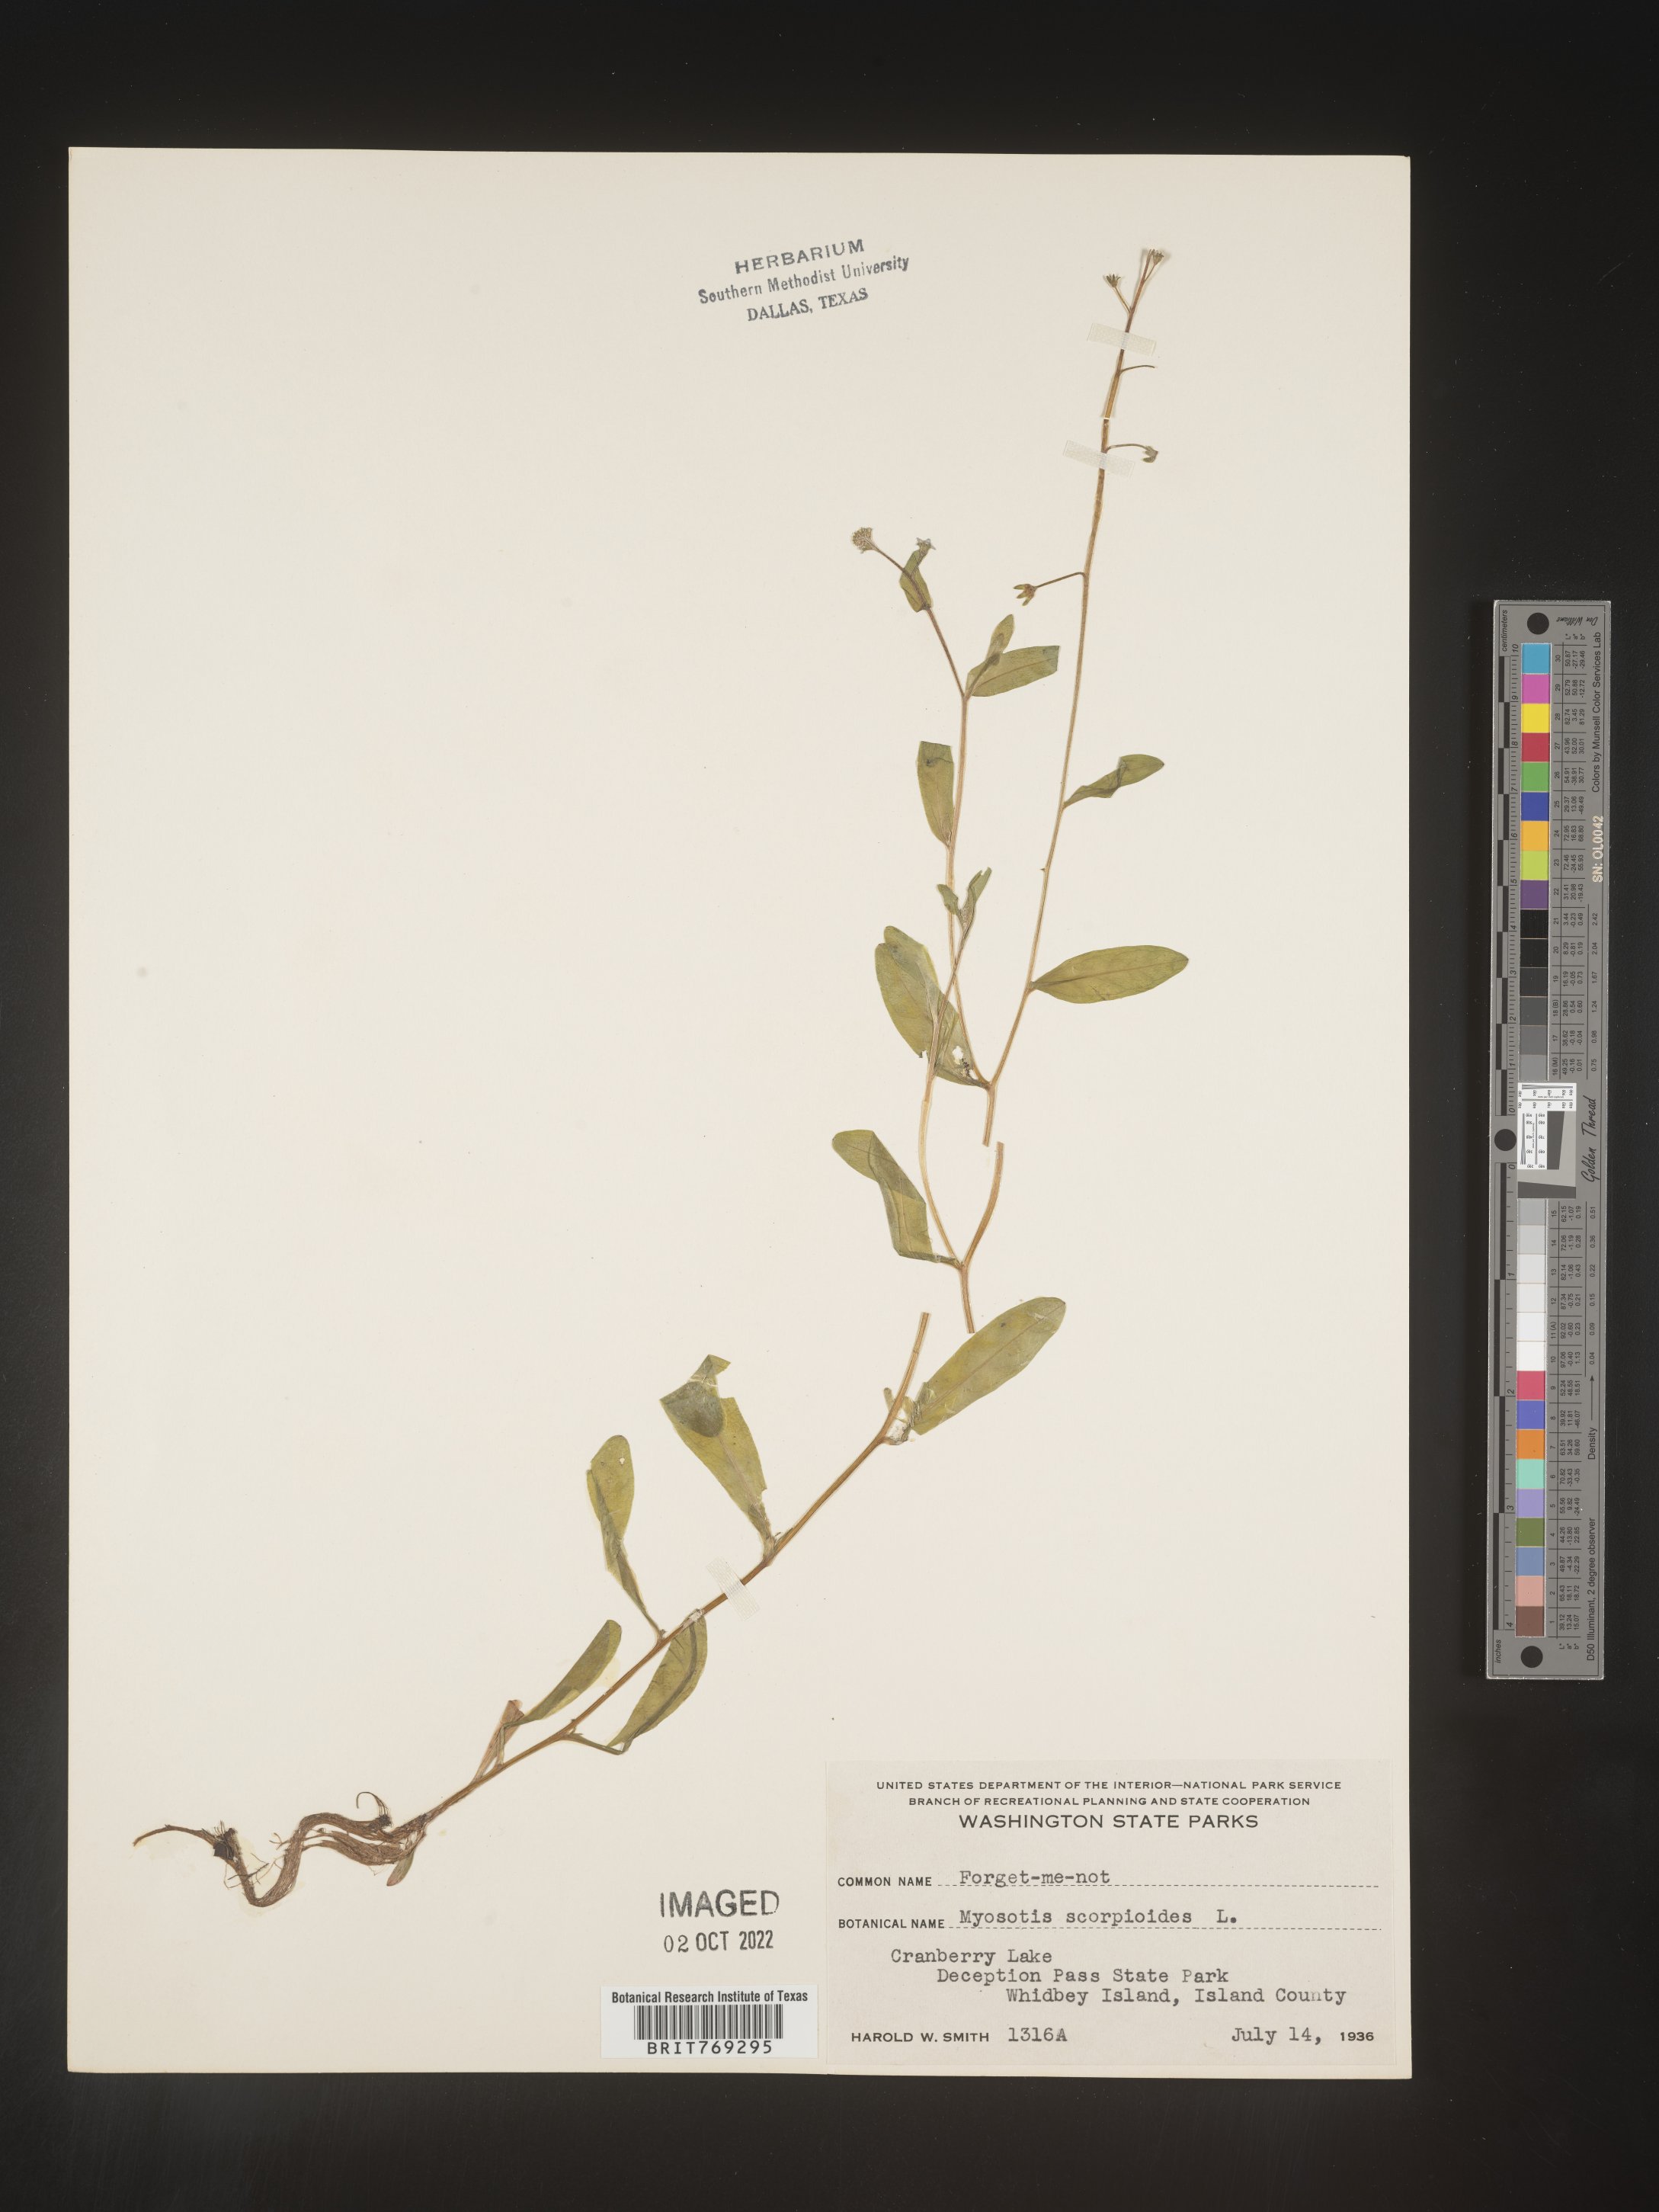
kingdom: Plantae
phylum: Tracheophyta
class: Magnoliopsida
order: Boraginales
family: Boraginaceae
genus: Myosotis
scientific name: Myosotis scorpioides
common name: Water forget-me-not
